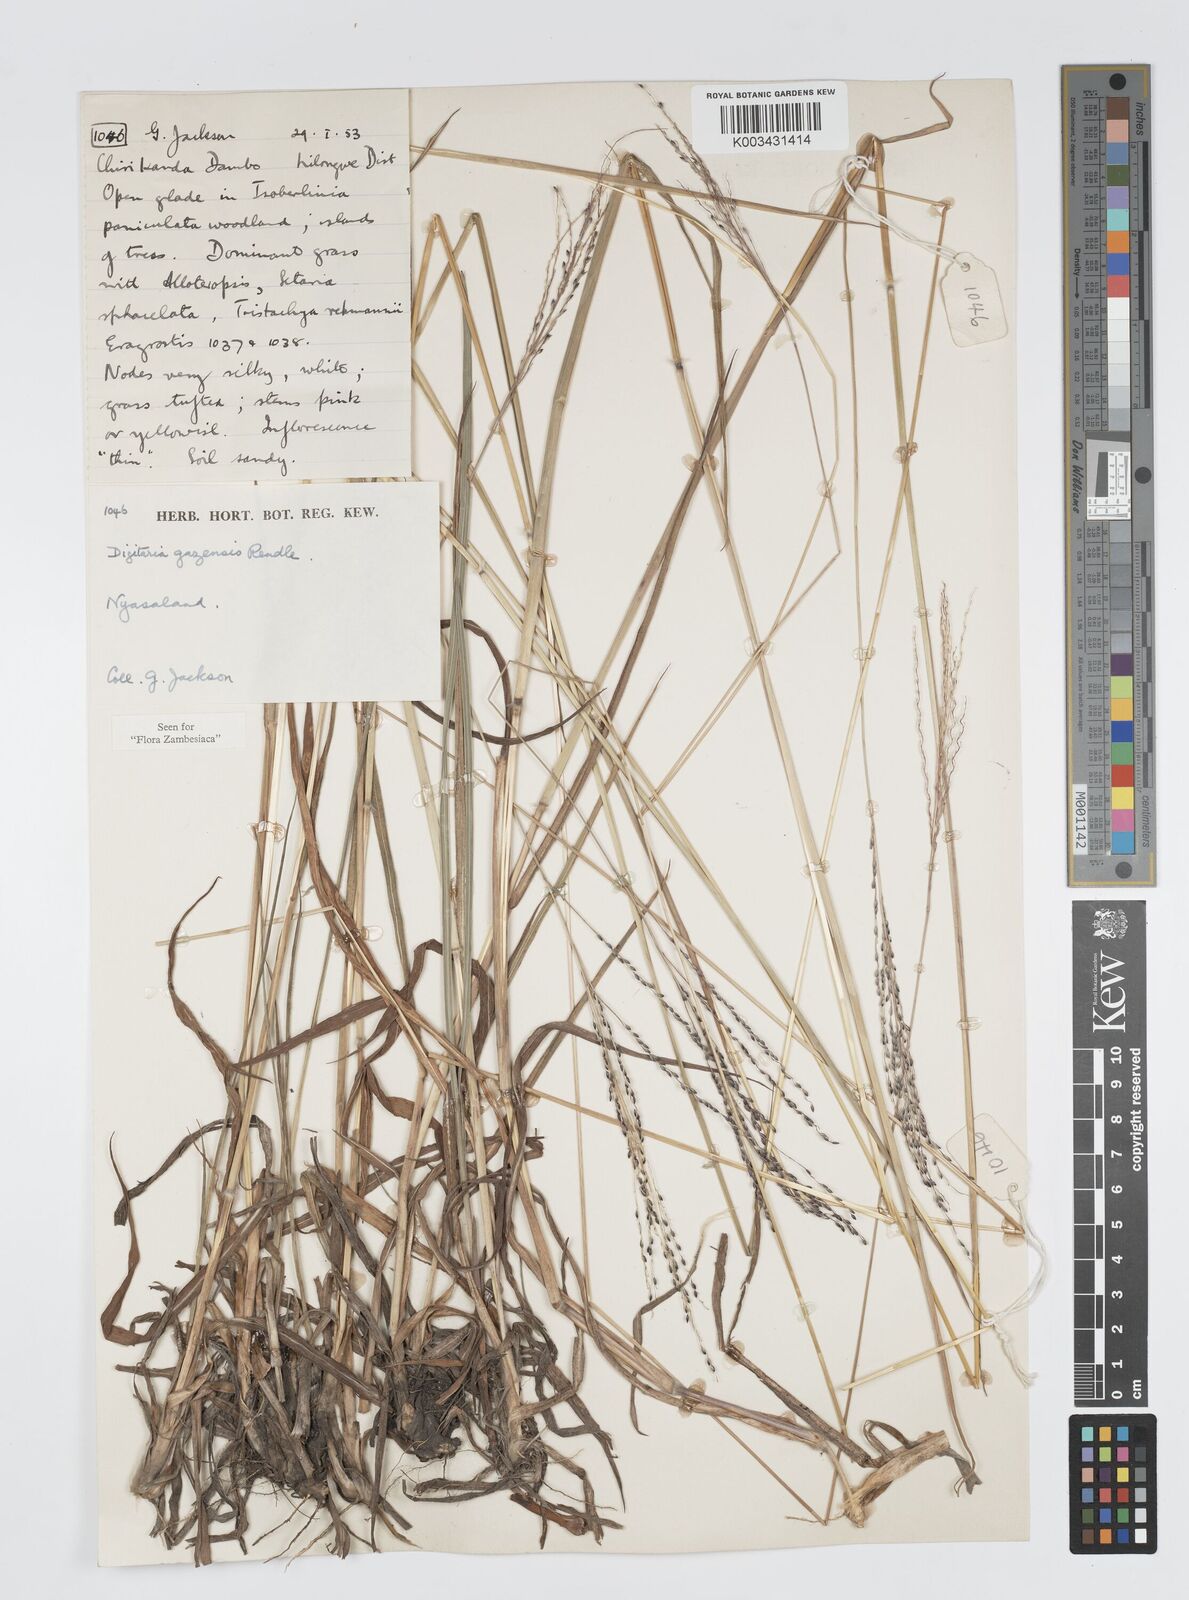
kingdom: Plantae
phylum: Tracheophyta
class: Liliopsida
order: Poales
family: Poaceae
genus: Digitaria
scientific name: Digitaria gazensis
